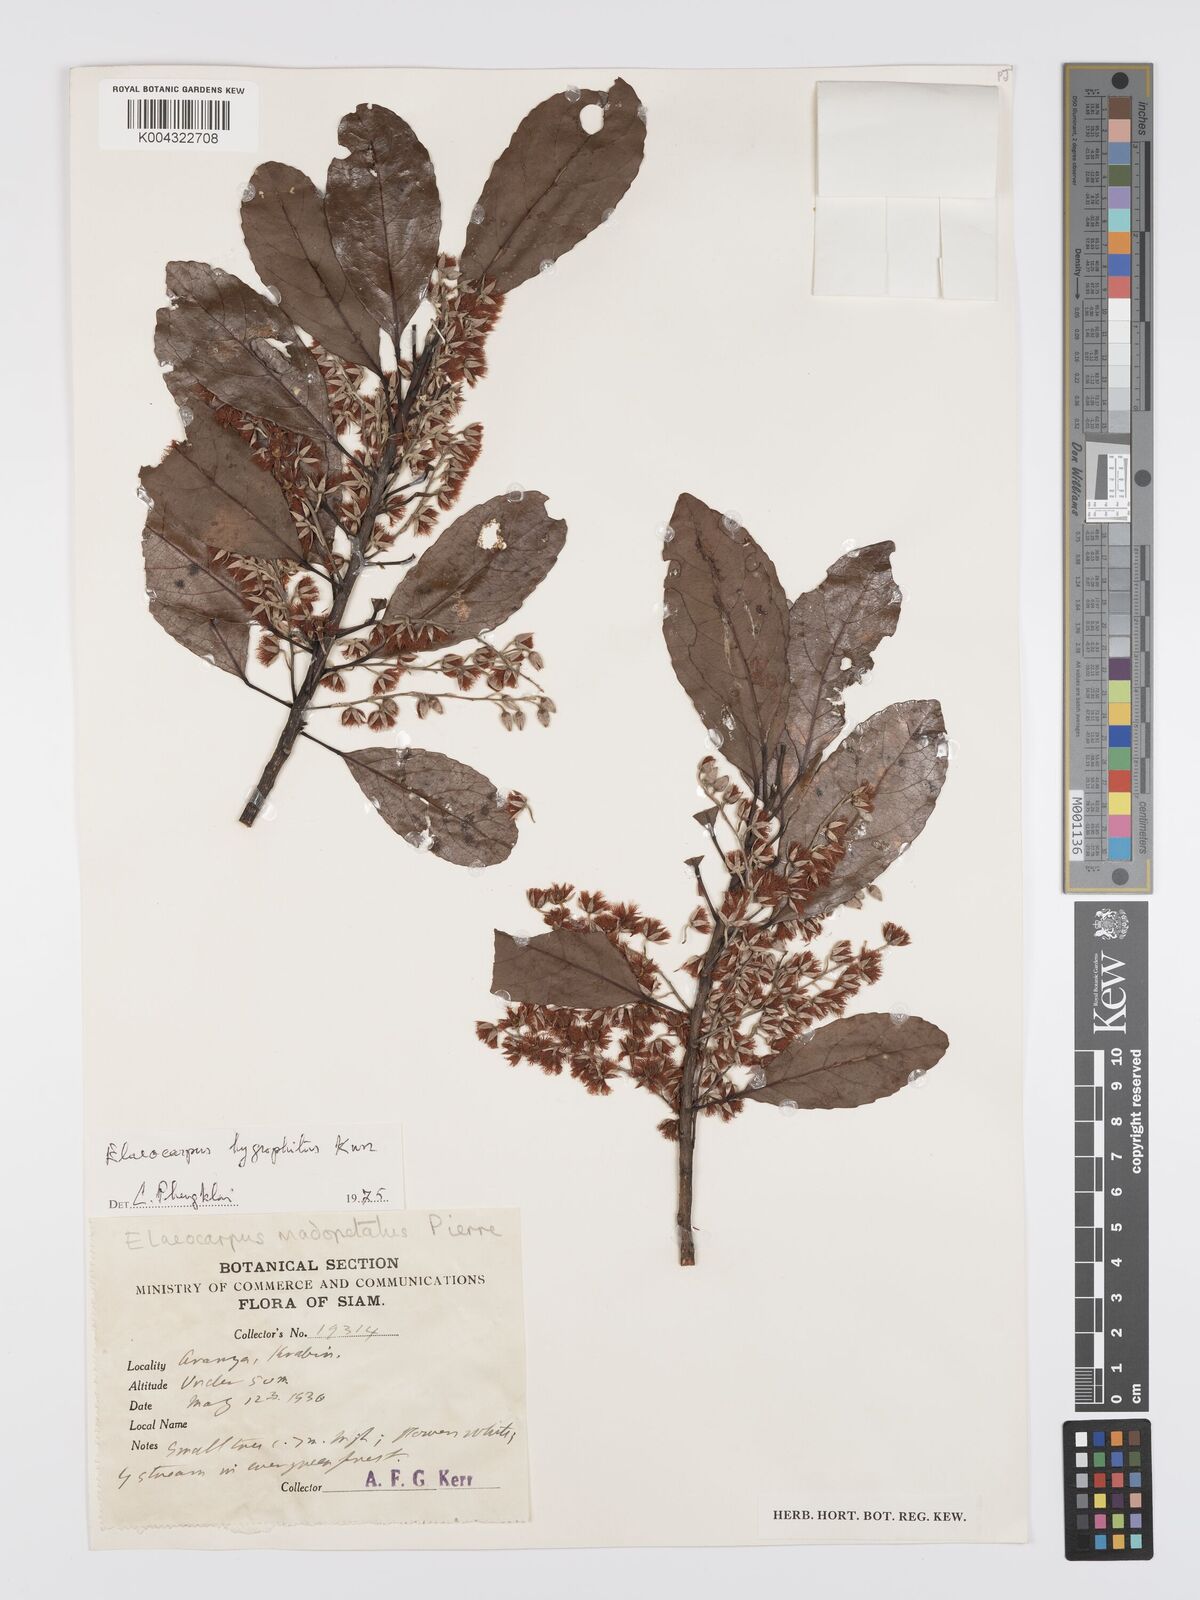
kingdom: Plantae
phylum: Tracheophyta
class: Magnoliopsida
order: Oxalidales
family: Elaeocarpaceae
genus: Elaeocarpus
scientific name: Elaeocarpus hygrophilus
